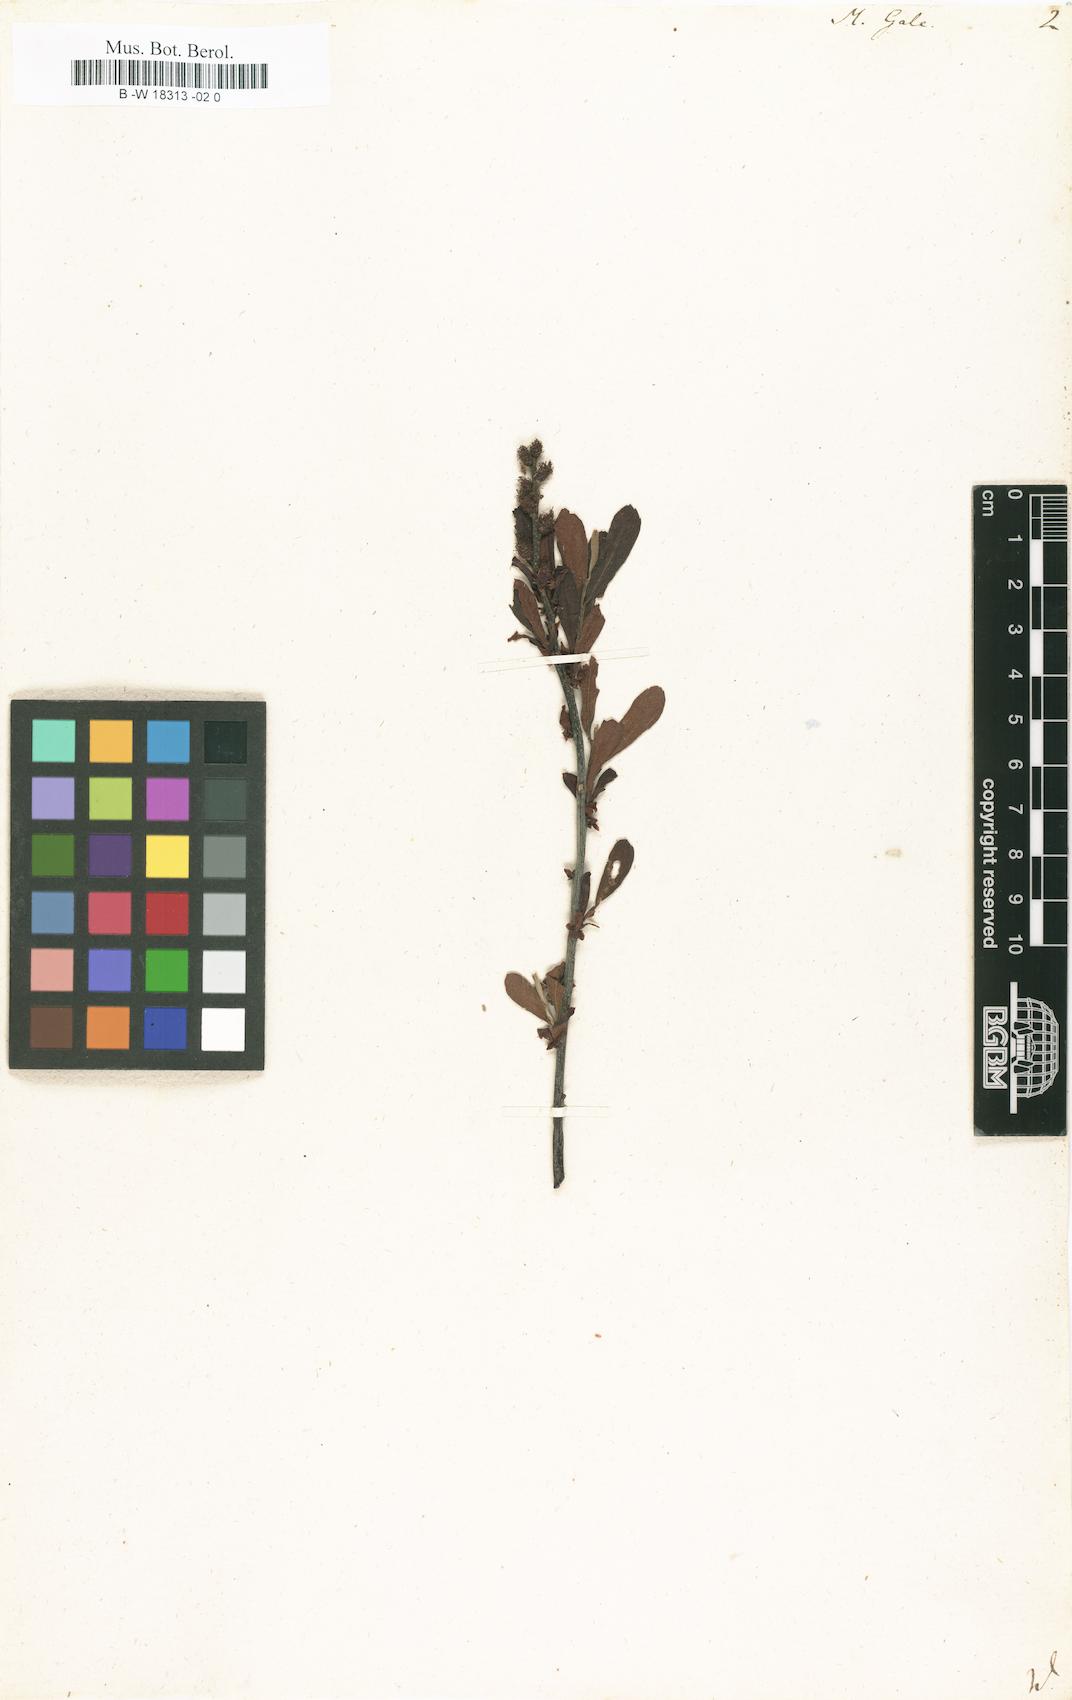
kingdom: Plantae
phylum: Tracheophyta
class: Magnoliopsida
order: Fagales
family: Myricaceae
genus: Myrica
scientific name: Myrica gale
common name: Sweet gale
